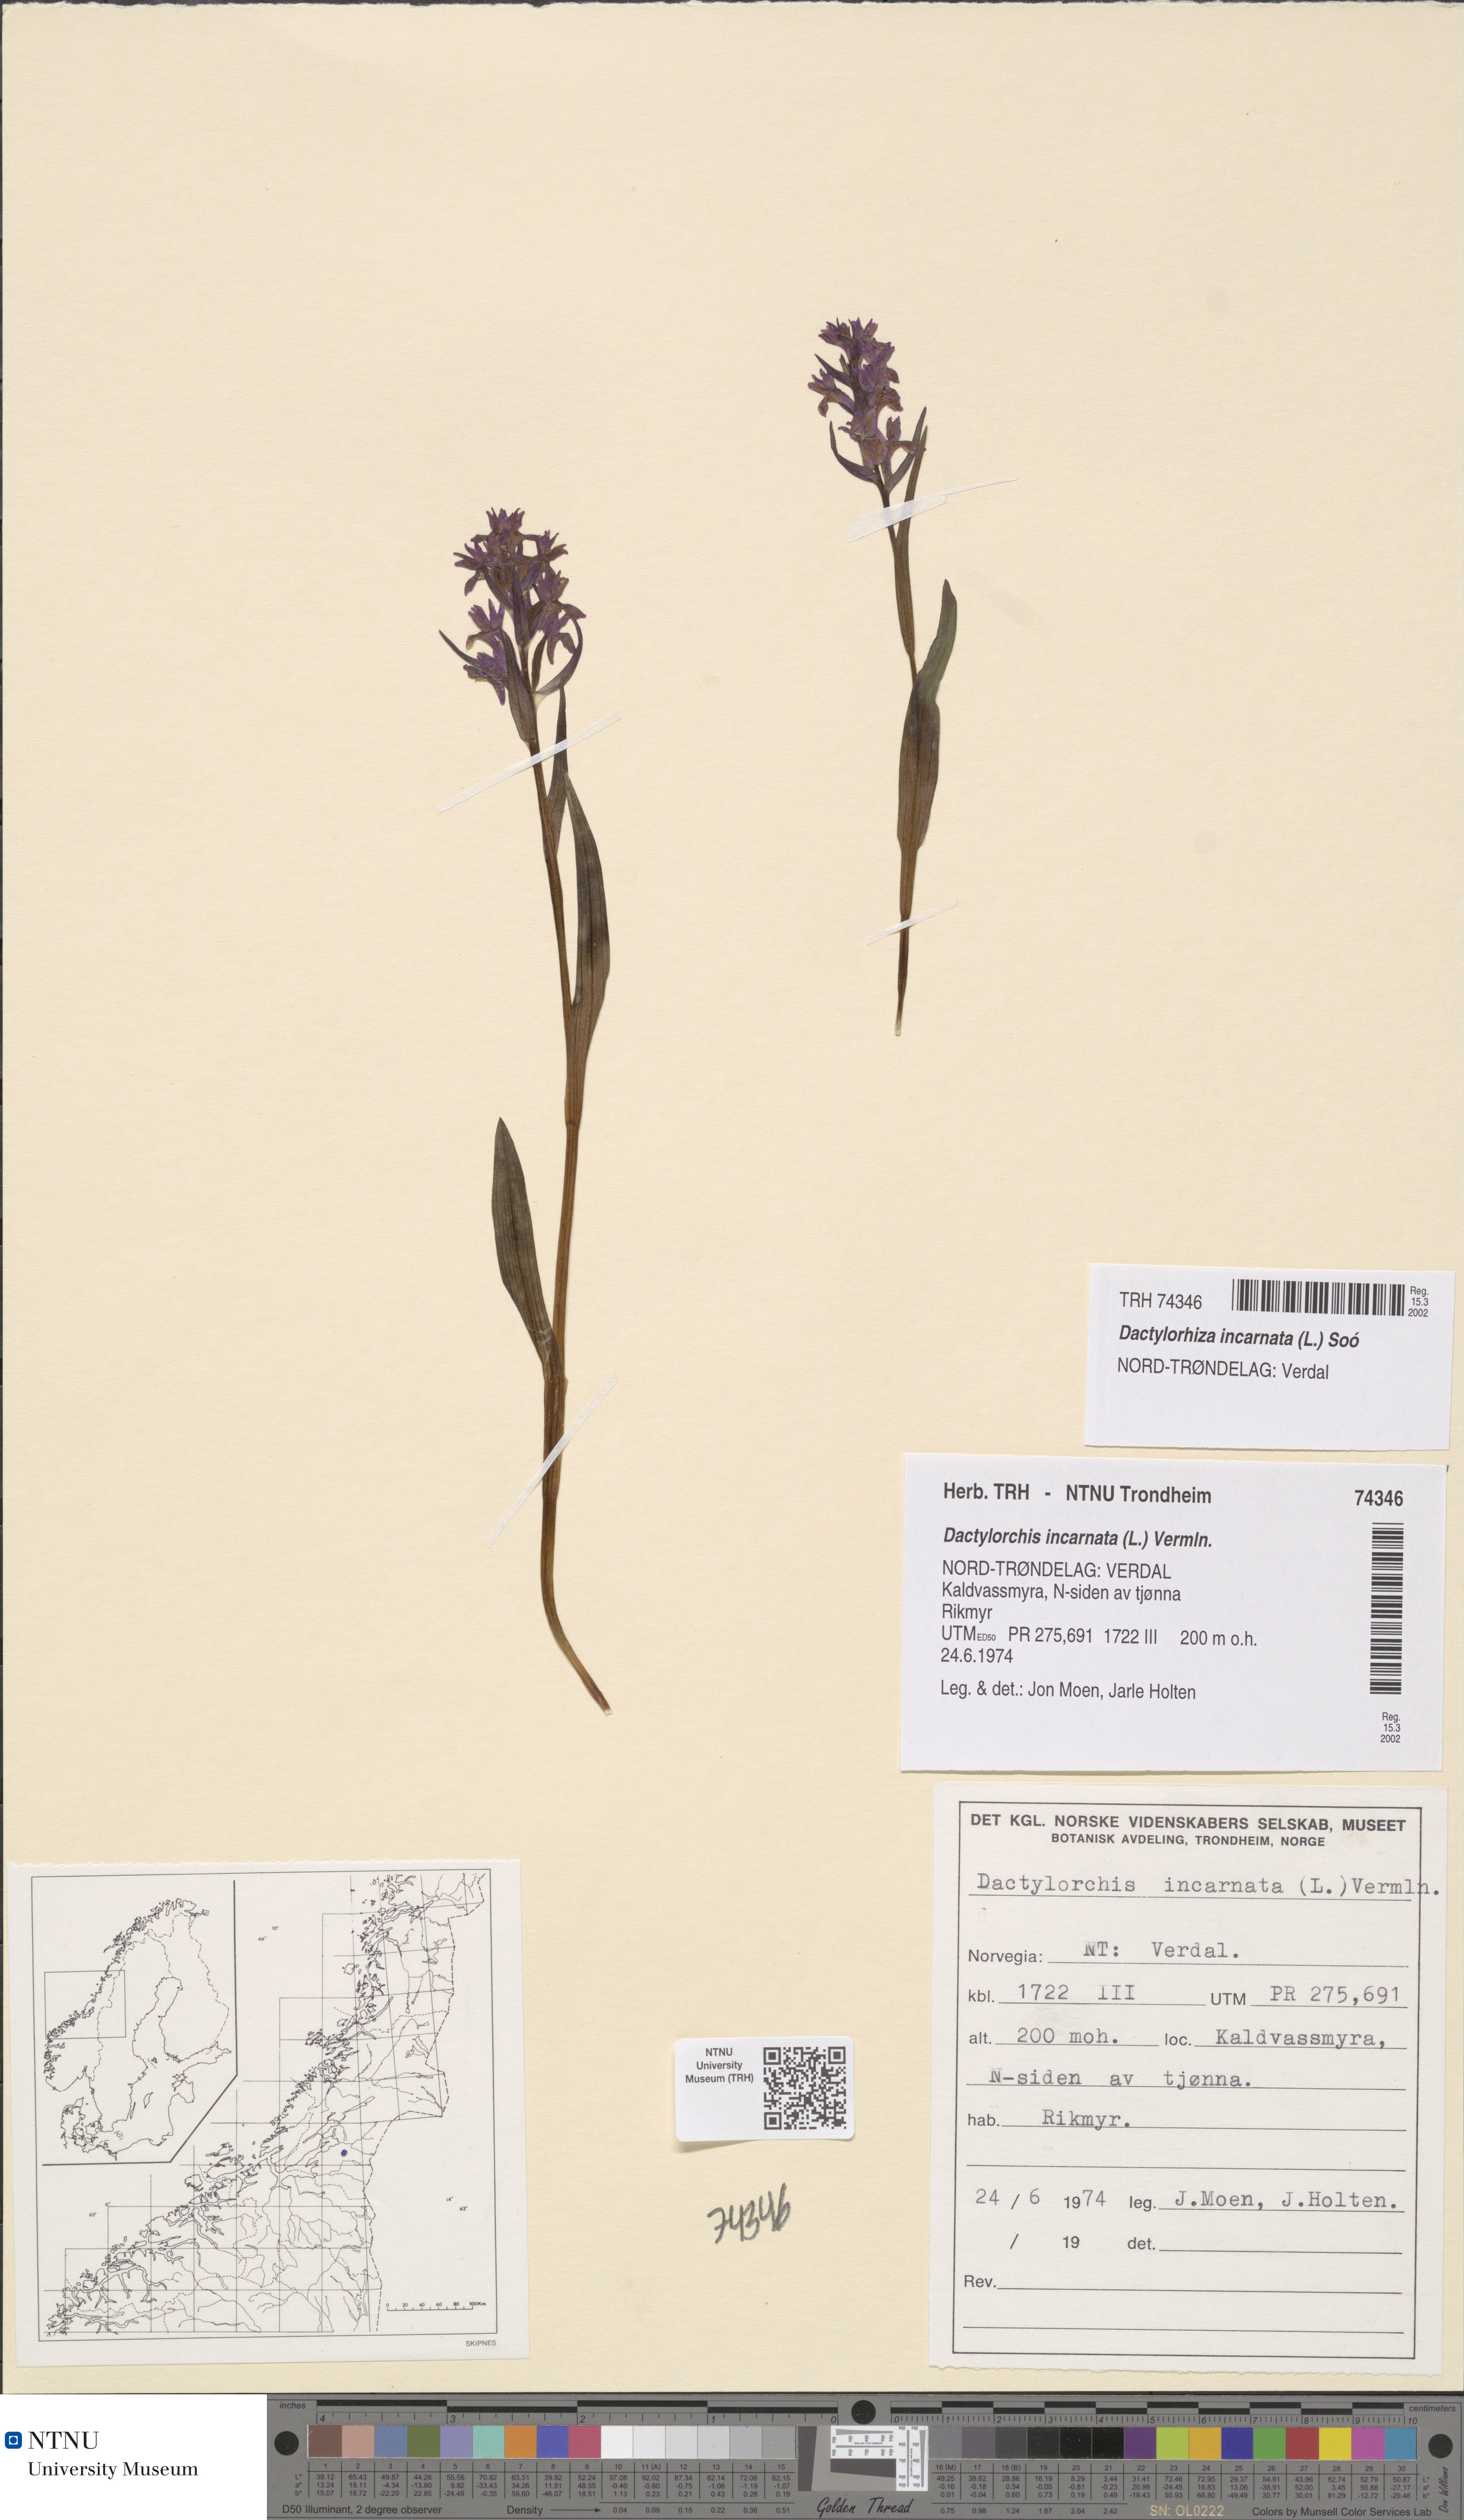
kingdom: Plantae
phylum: Tracheophyta
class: Liliopsida
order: Asparagales
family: Orchidaceae
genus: Dactylorhiza
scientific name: Dactylorhiza incarnata
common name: Early marsh-orchid
